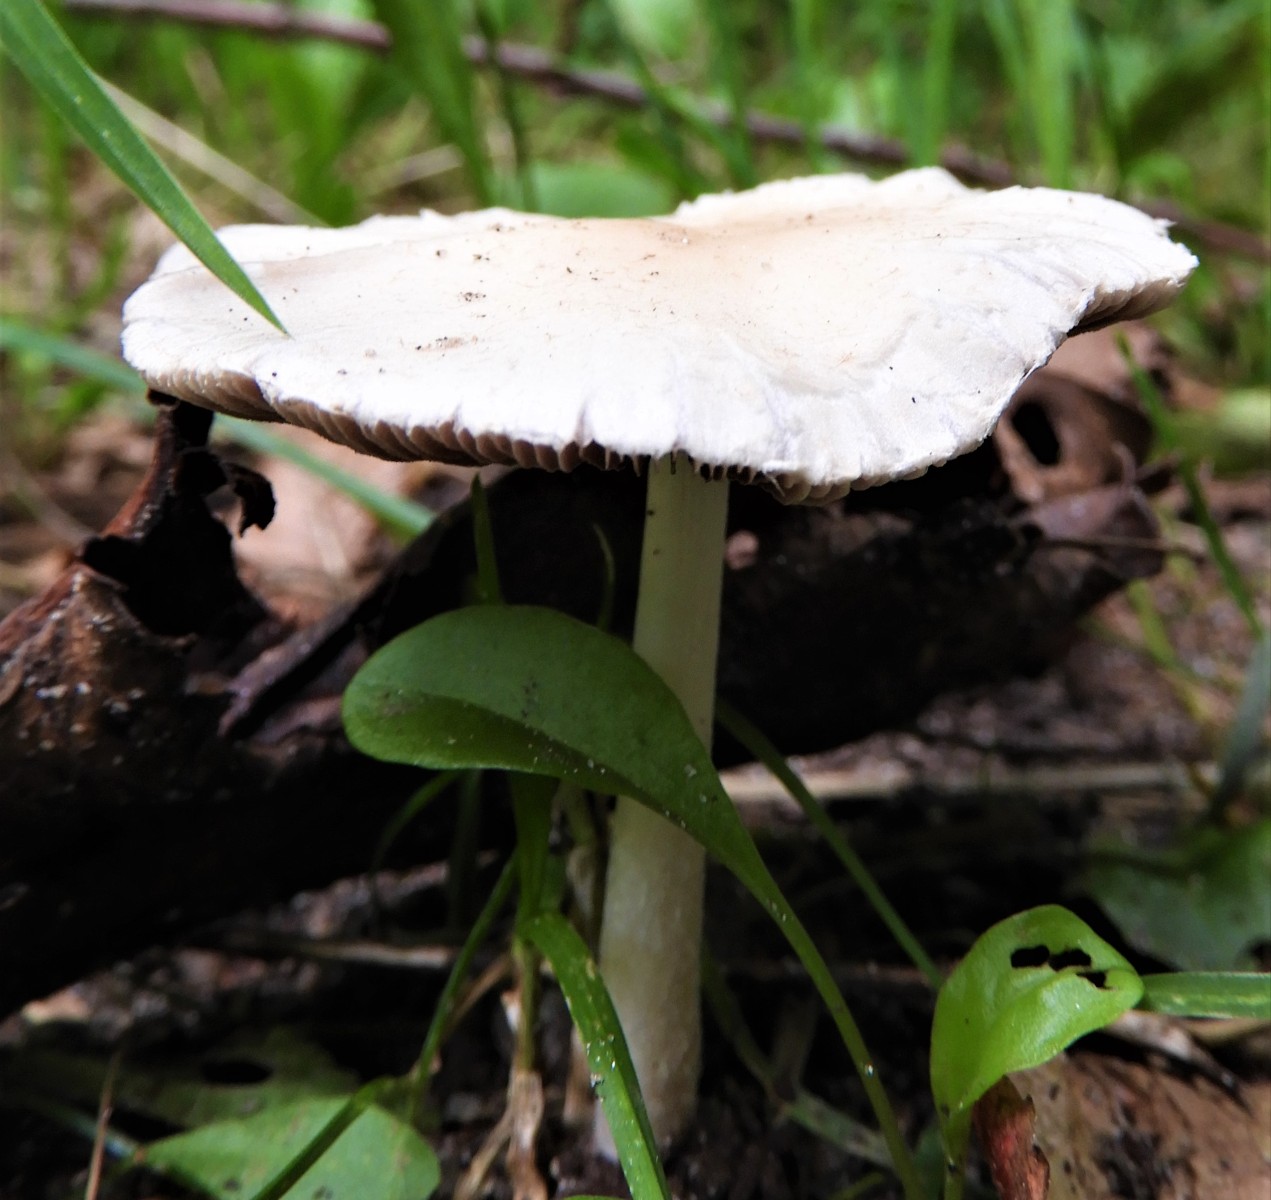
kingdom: Fungi
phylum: Basidiomycota
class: Agaricomycetes
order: Agaricales
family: Psathyrellaceae
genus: Candolleomyces
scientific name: Candolleomyces candolleanus
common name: Candolles mørkhat
